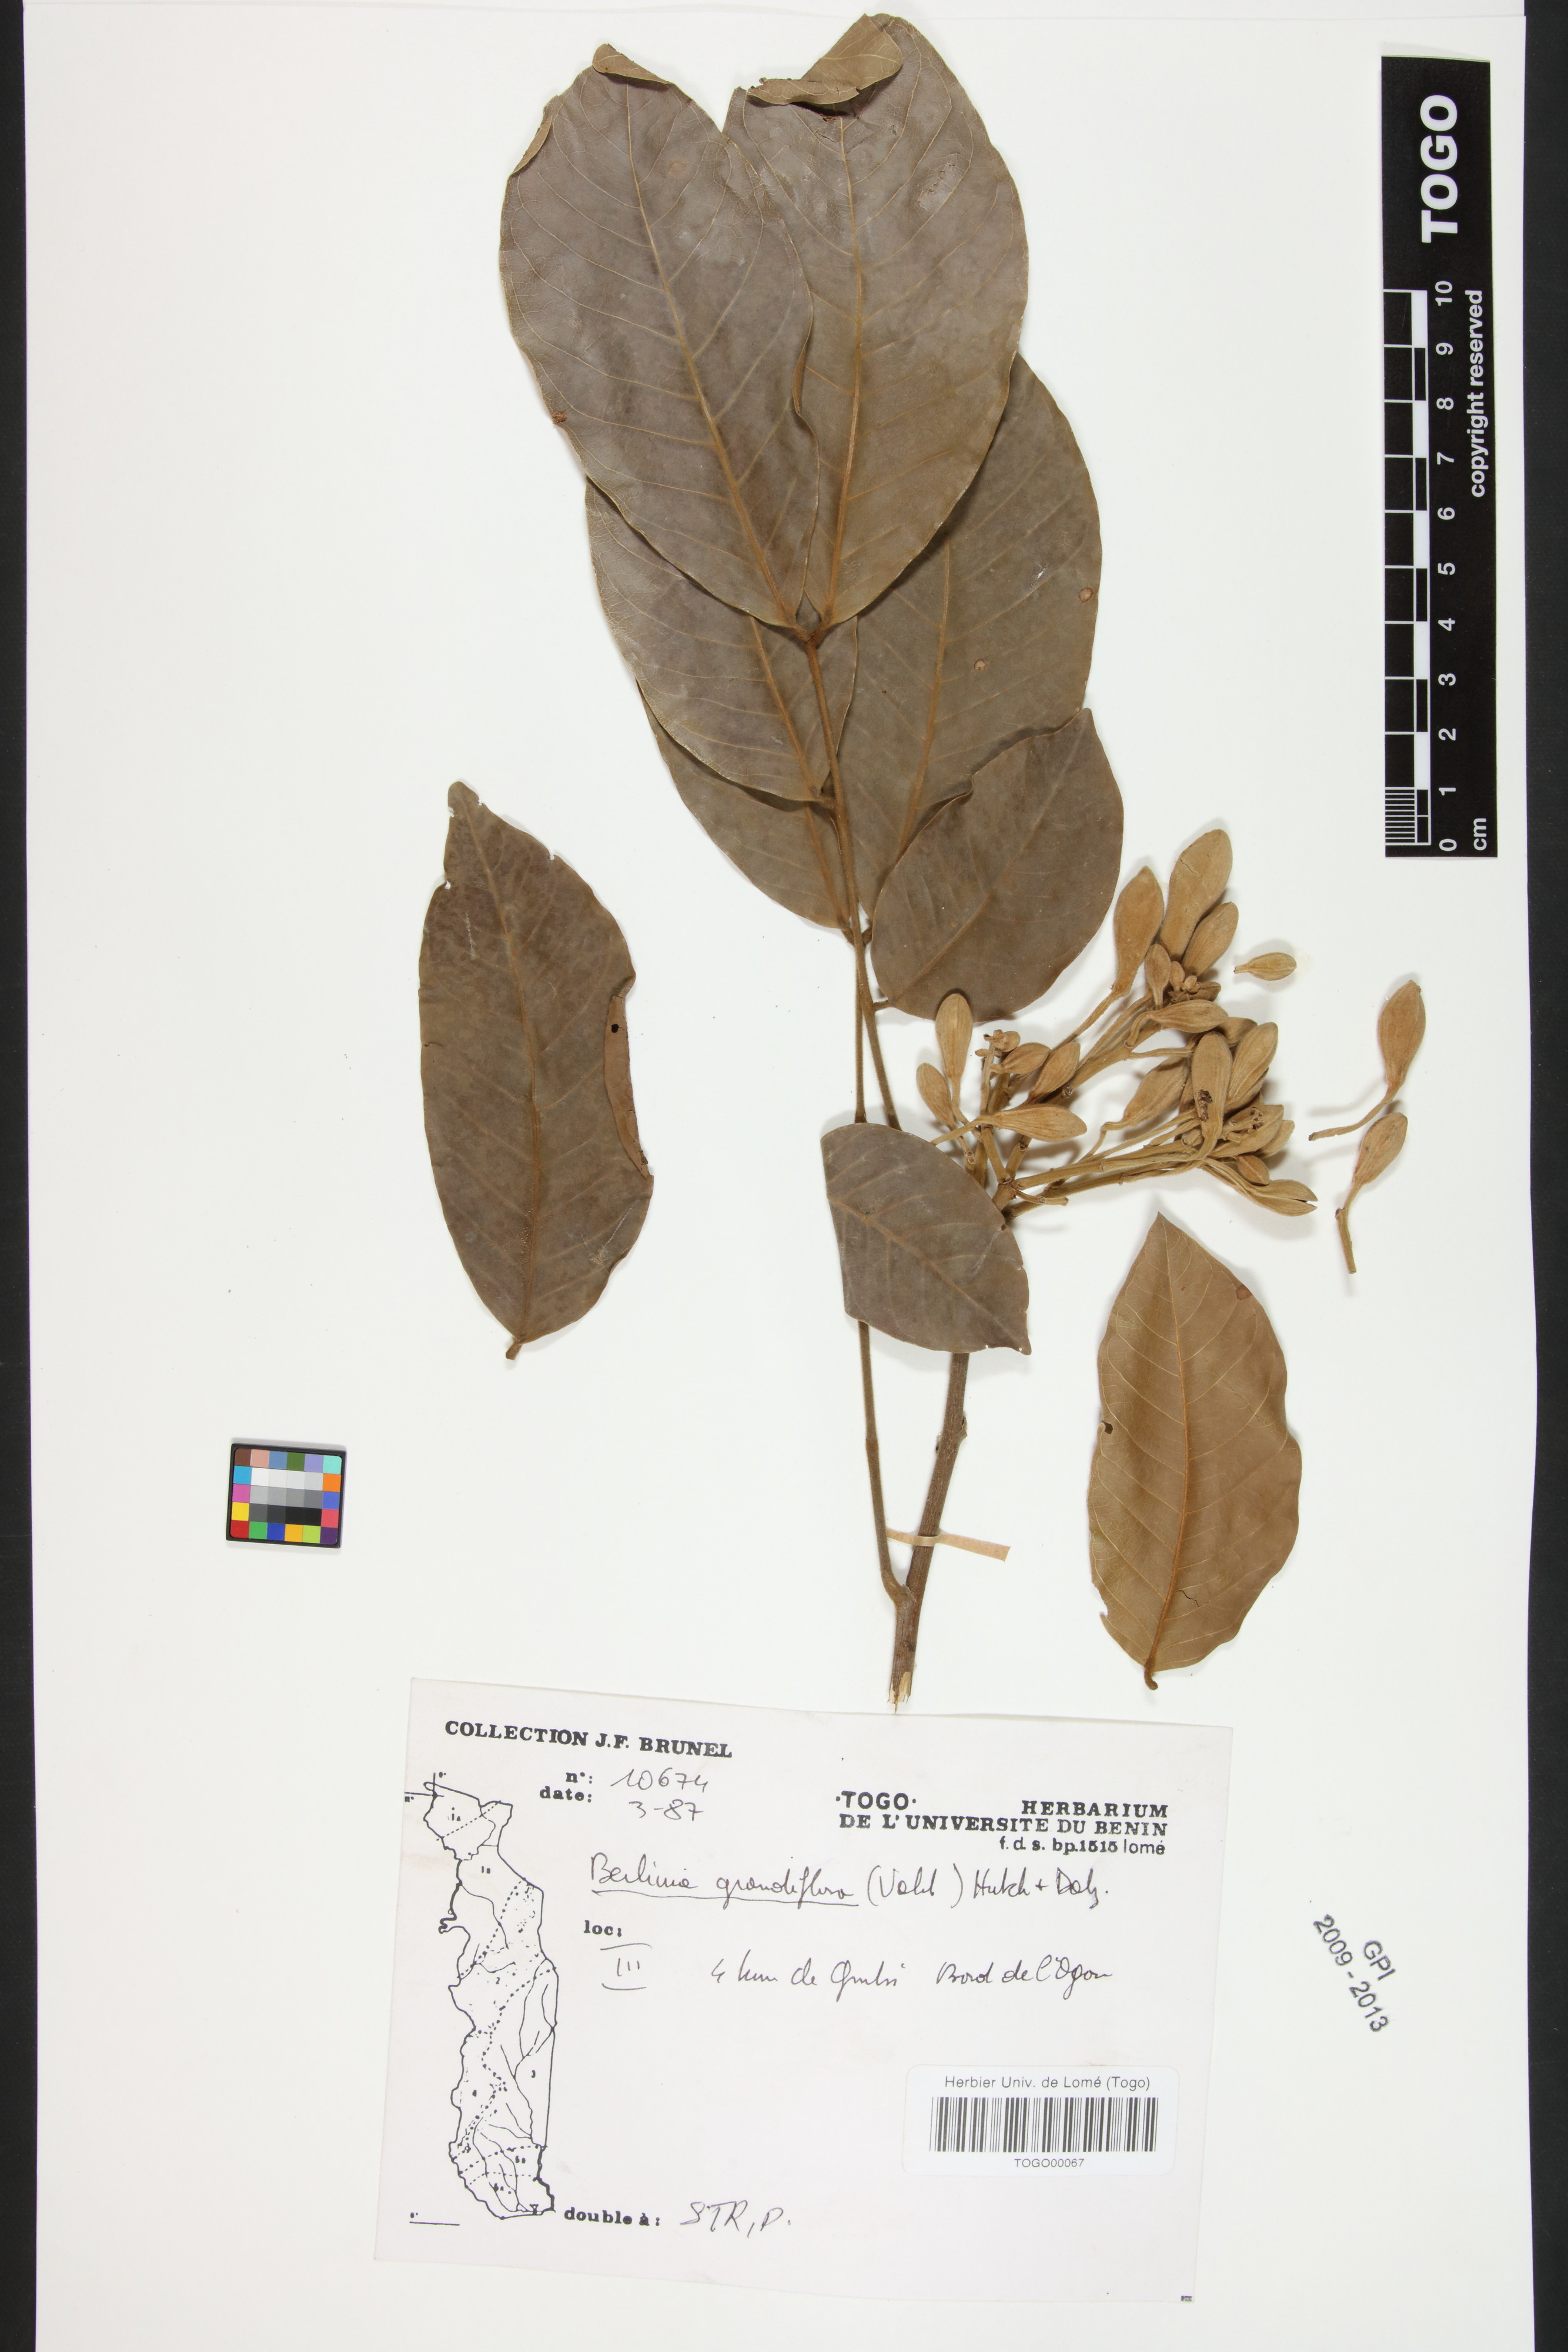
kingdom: Plantae
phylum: Tracheophyta
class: Magnoliopsida
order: Fabales
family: Fabaceae
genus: Berlinia
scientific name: Berlinia grandiflora
